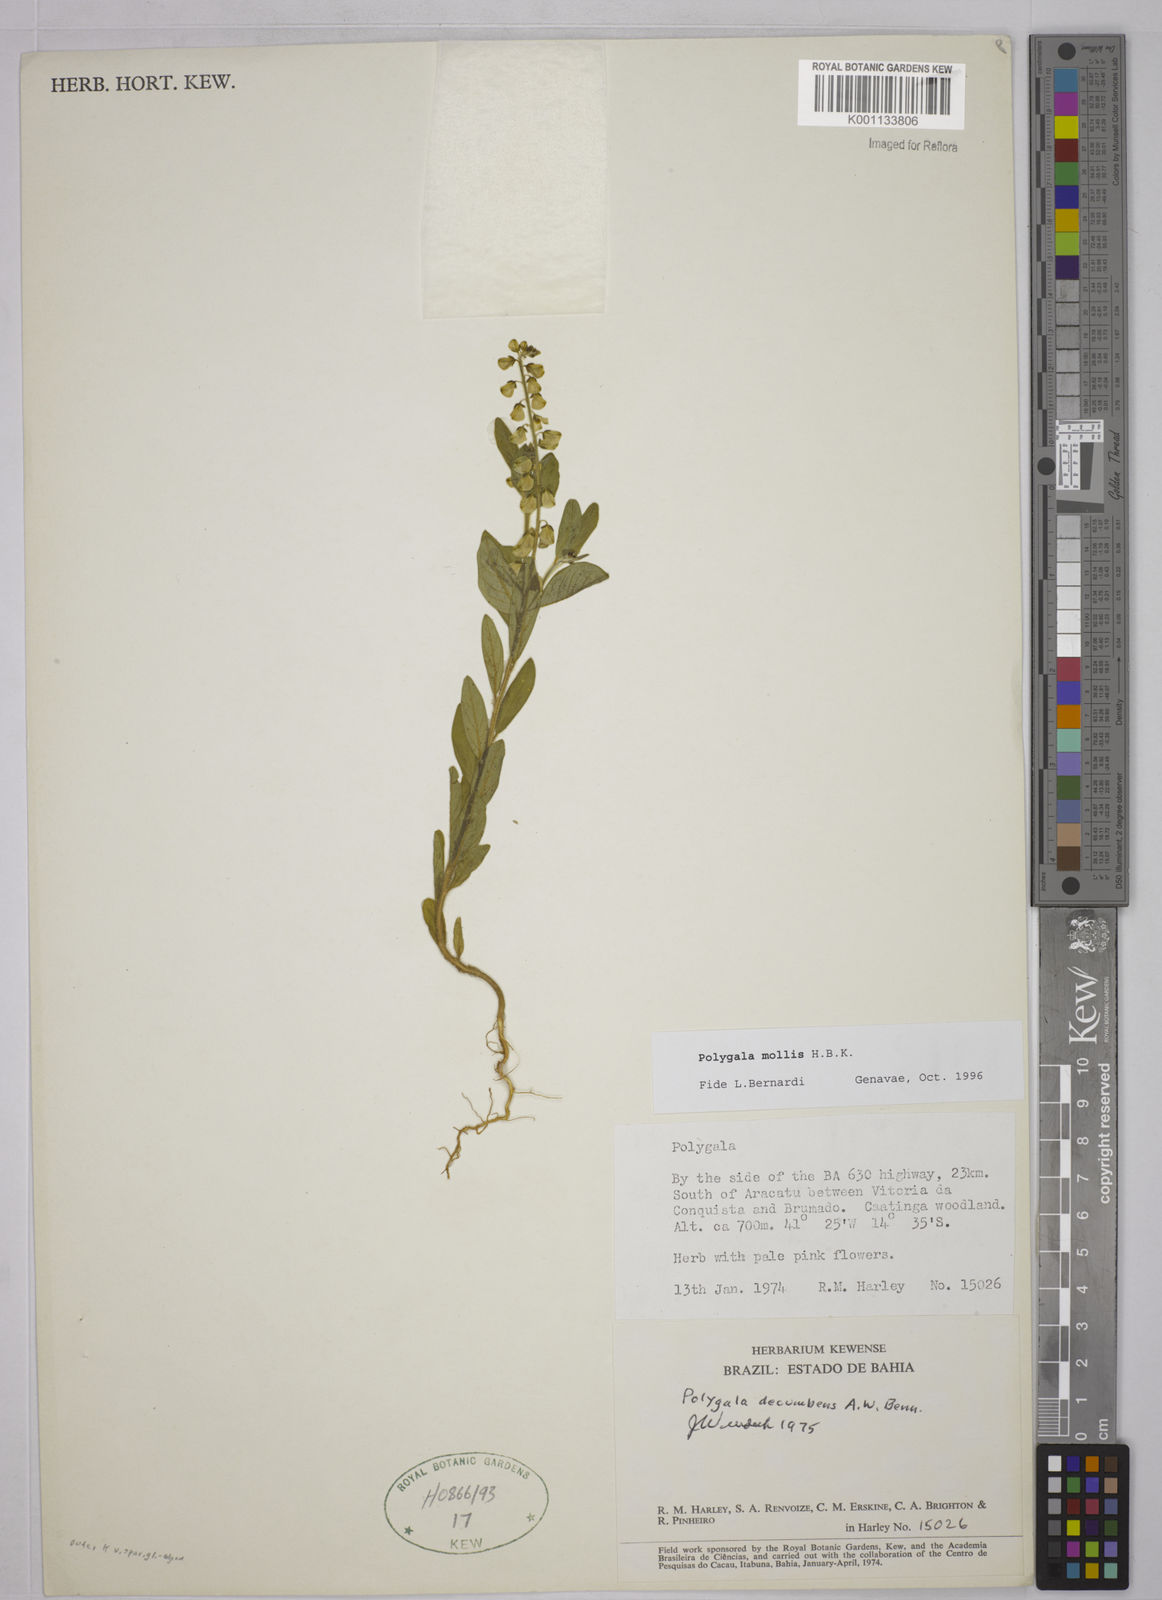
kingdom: Plantae
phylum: Tracheophyta
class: Magnoliopsida
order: Fabales
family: Polygalaceae
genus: Polygala
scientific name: Polygala
